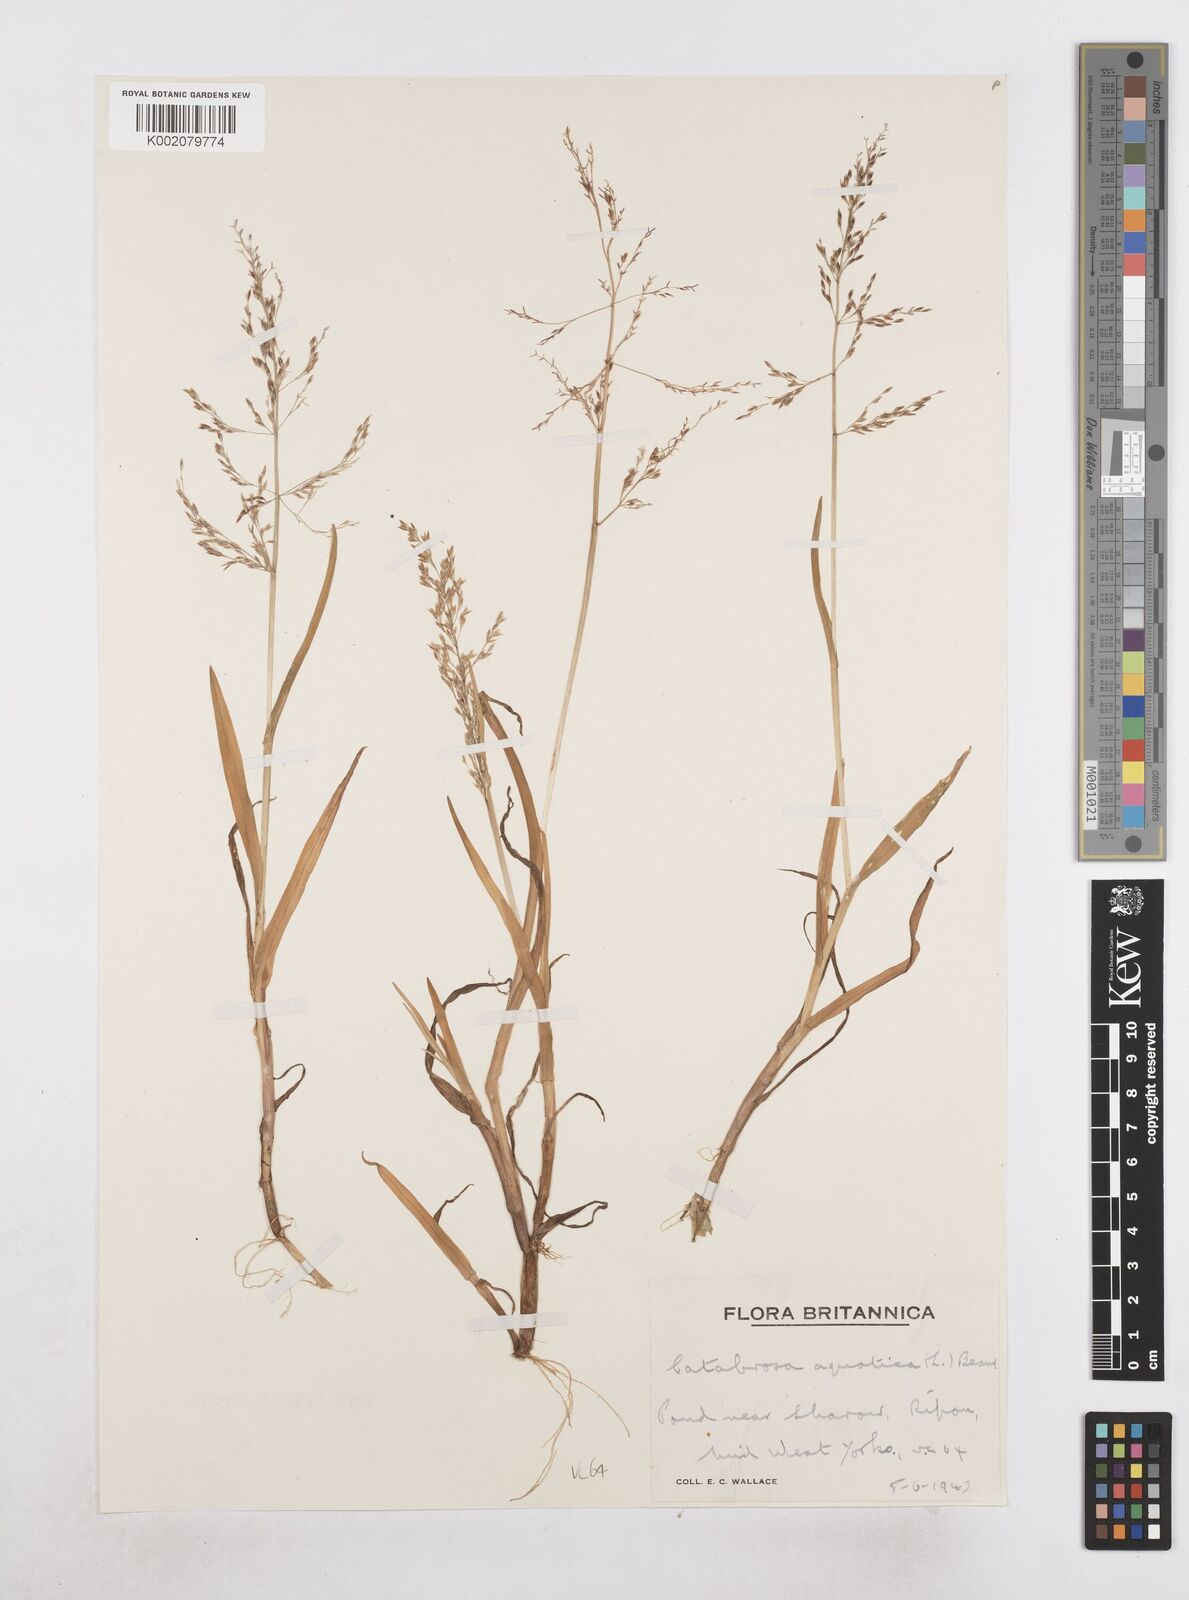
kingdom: Plantae
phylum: Tracheophyta
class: Liliopsida
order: Poales
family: Poaceae
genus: Catabrosa
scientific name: Catabrosa aquatica
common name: Whorl-grass
